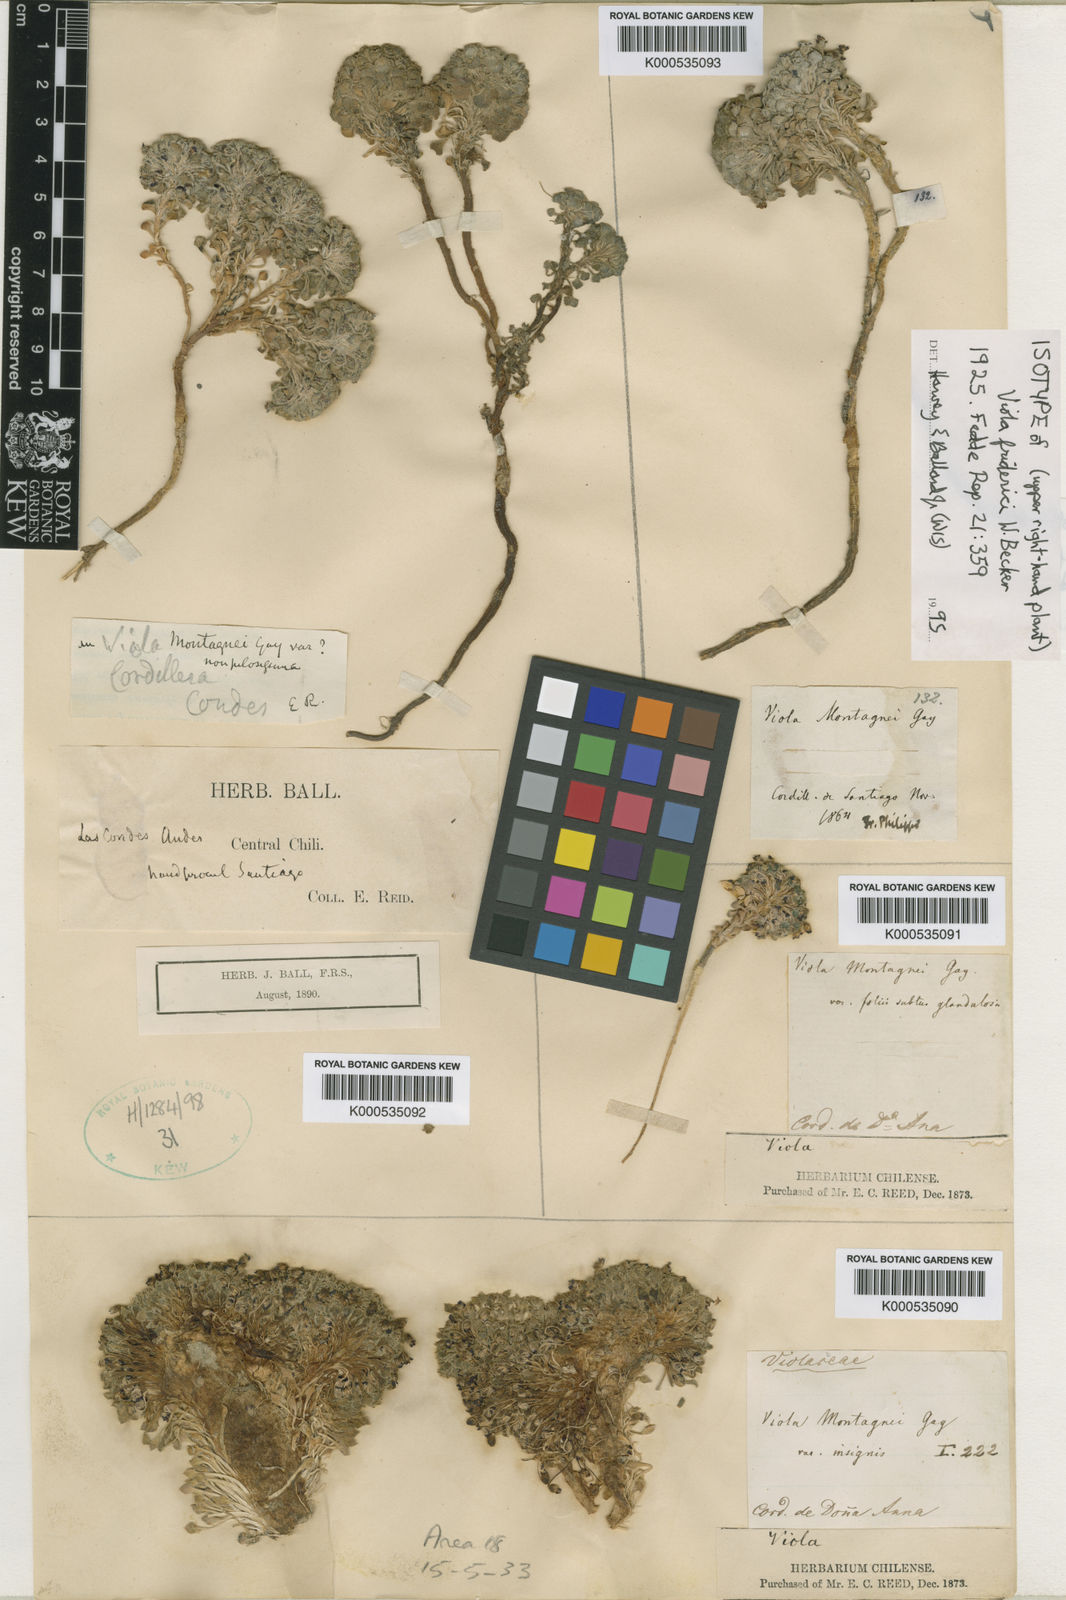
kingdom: Plantae
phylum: Tracheophyta
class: Magnoliopsida
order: Malpighiales
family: Violaceae
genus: Viola
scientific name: Viola montagnei
